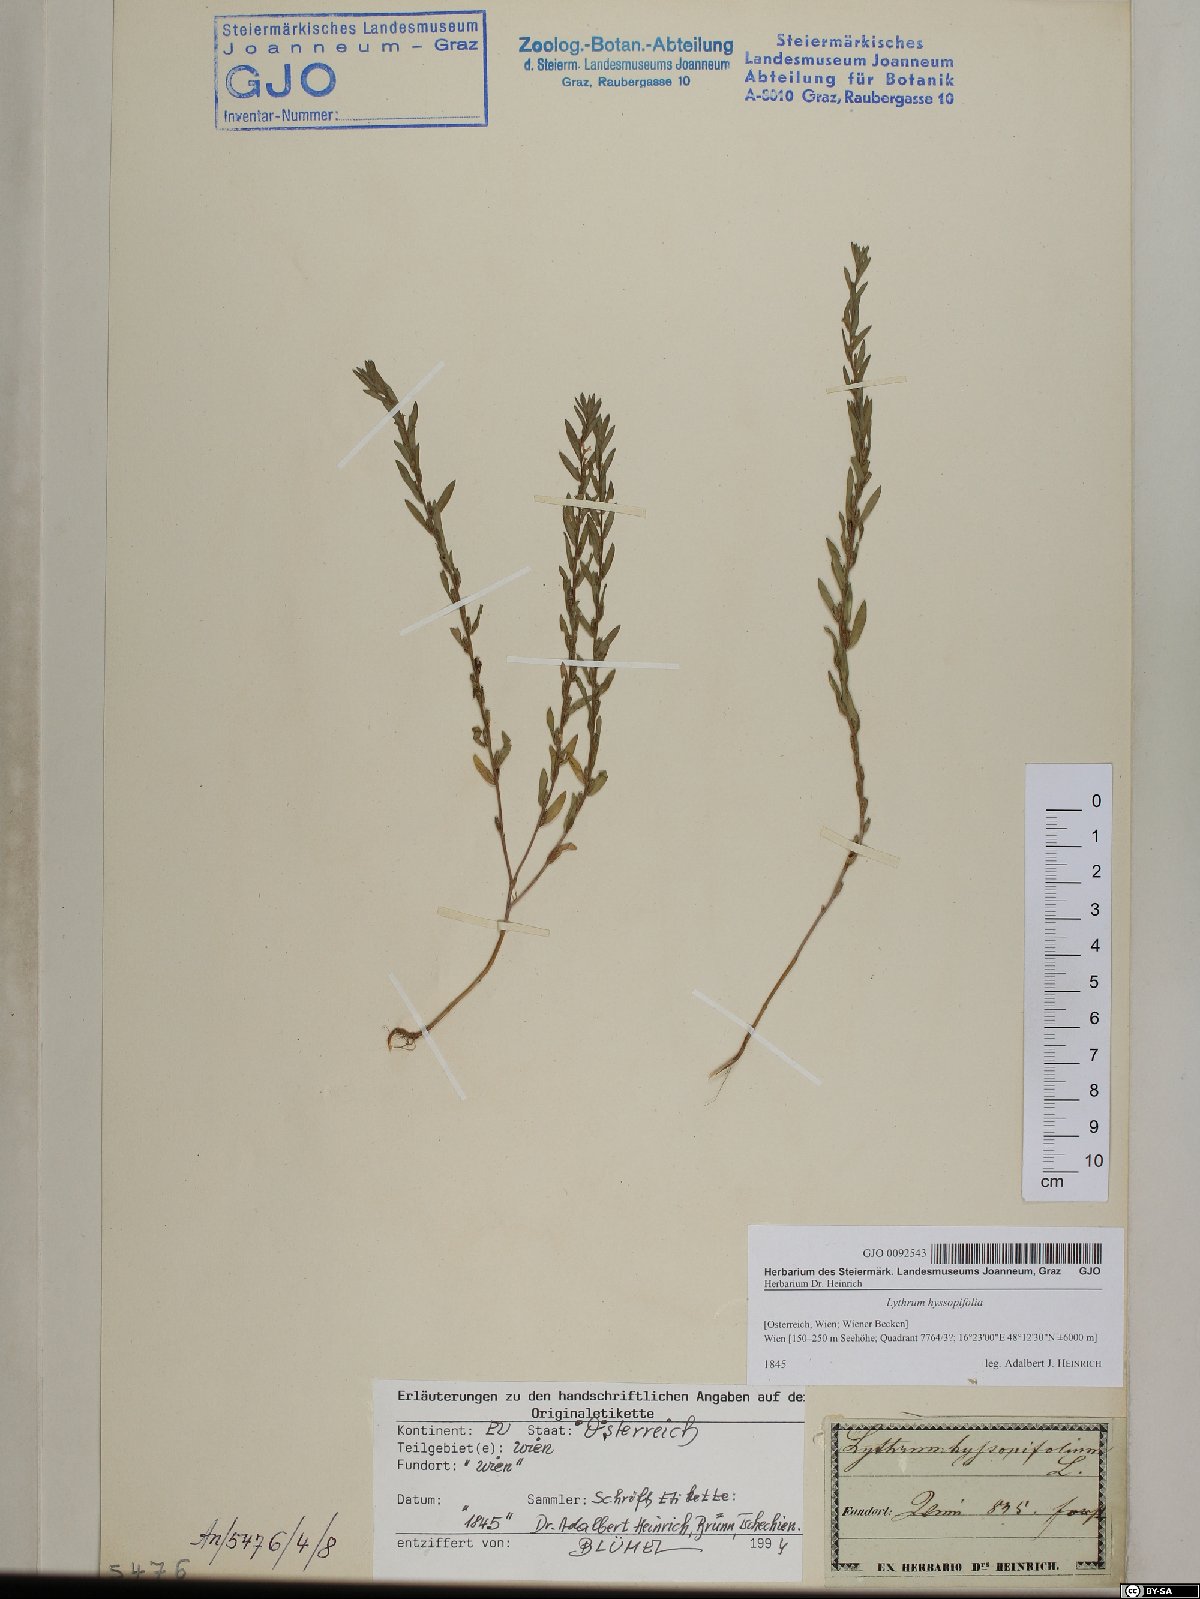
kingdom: Plantae
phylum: Tracheophyta
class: Magnoliopsida
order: Myrtales
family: Lythraceae
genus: Lythrum
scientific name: Lythrum hyssopifolia
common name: Grass-poly
